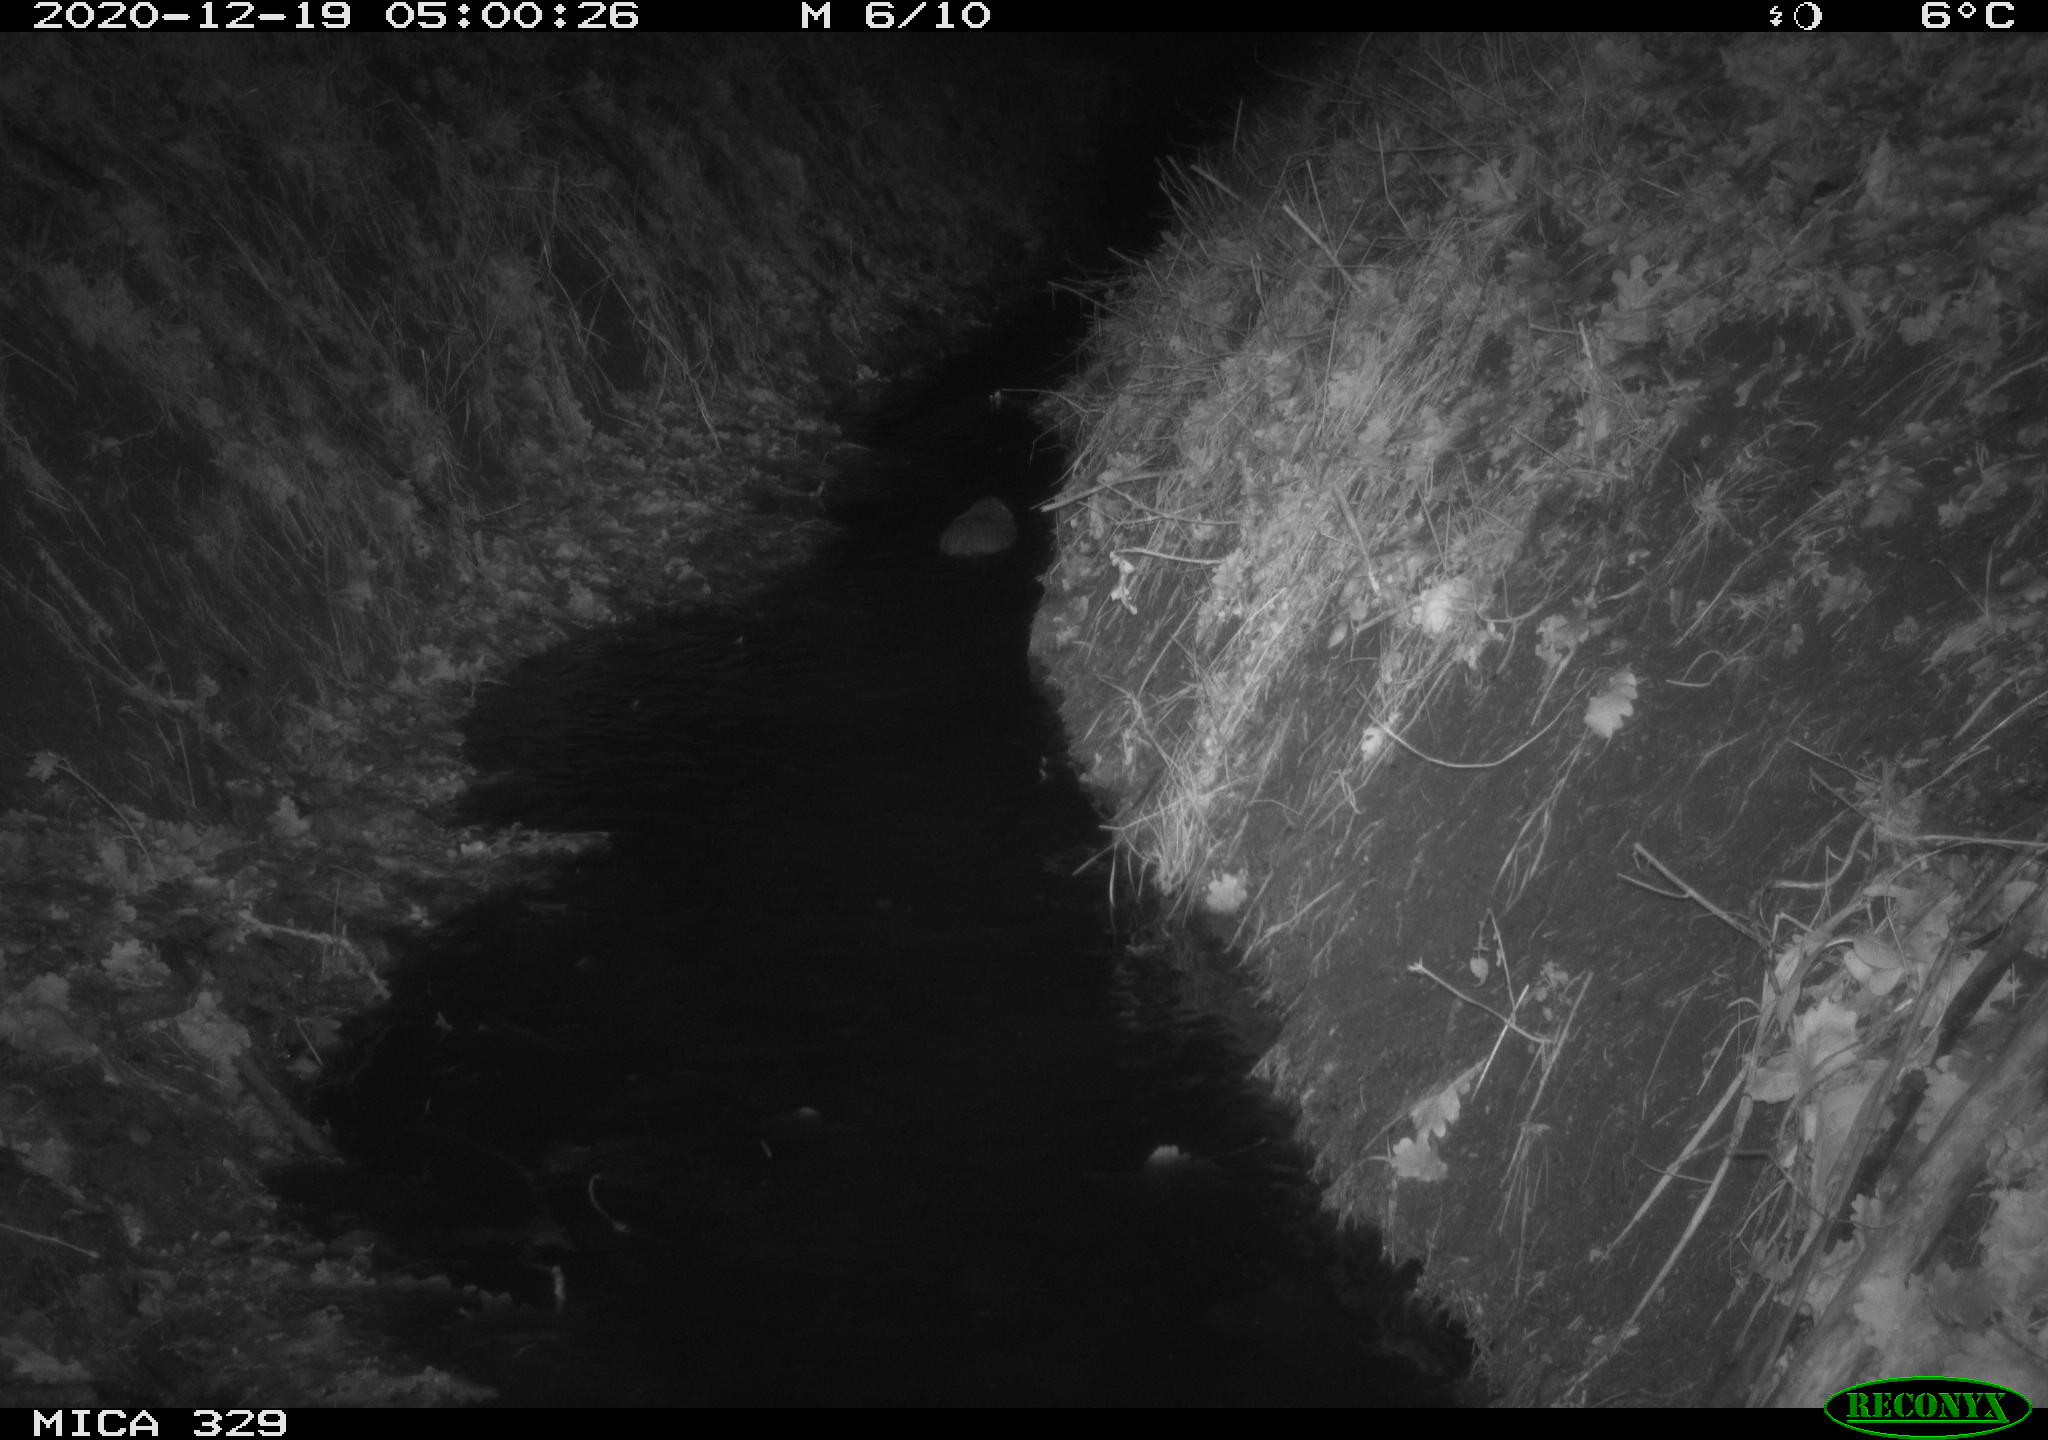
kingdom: Animalia
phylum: Chordata
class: Mammalia
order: Rodentia
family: Cricetidae
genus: Ondatra
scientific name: Ondatra zibethicus
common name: Muskrat
